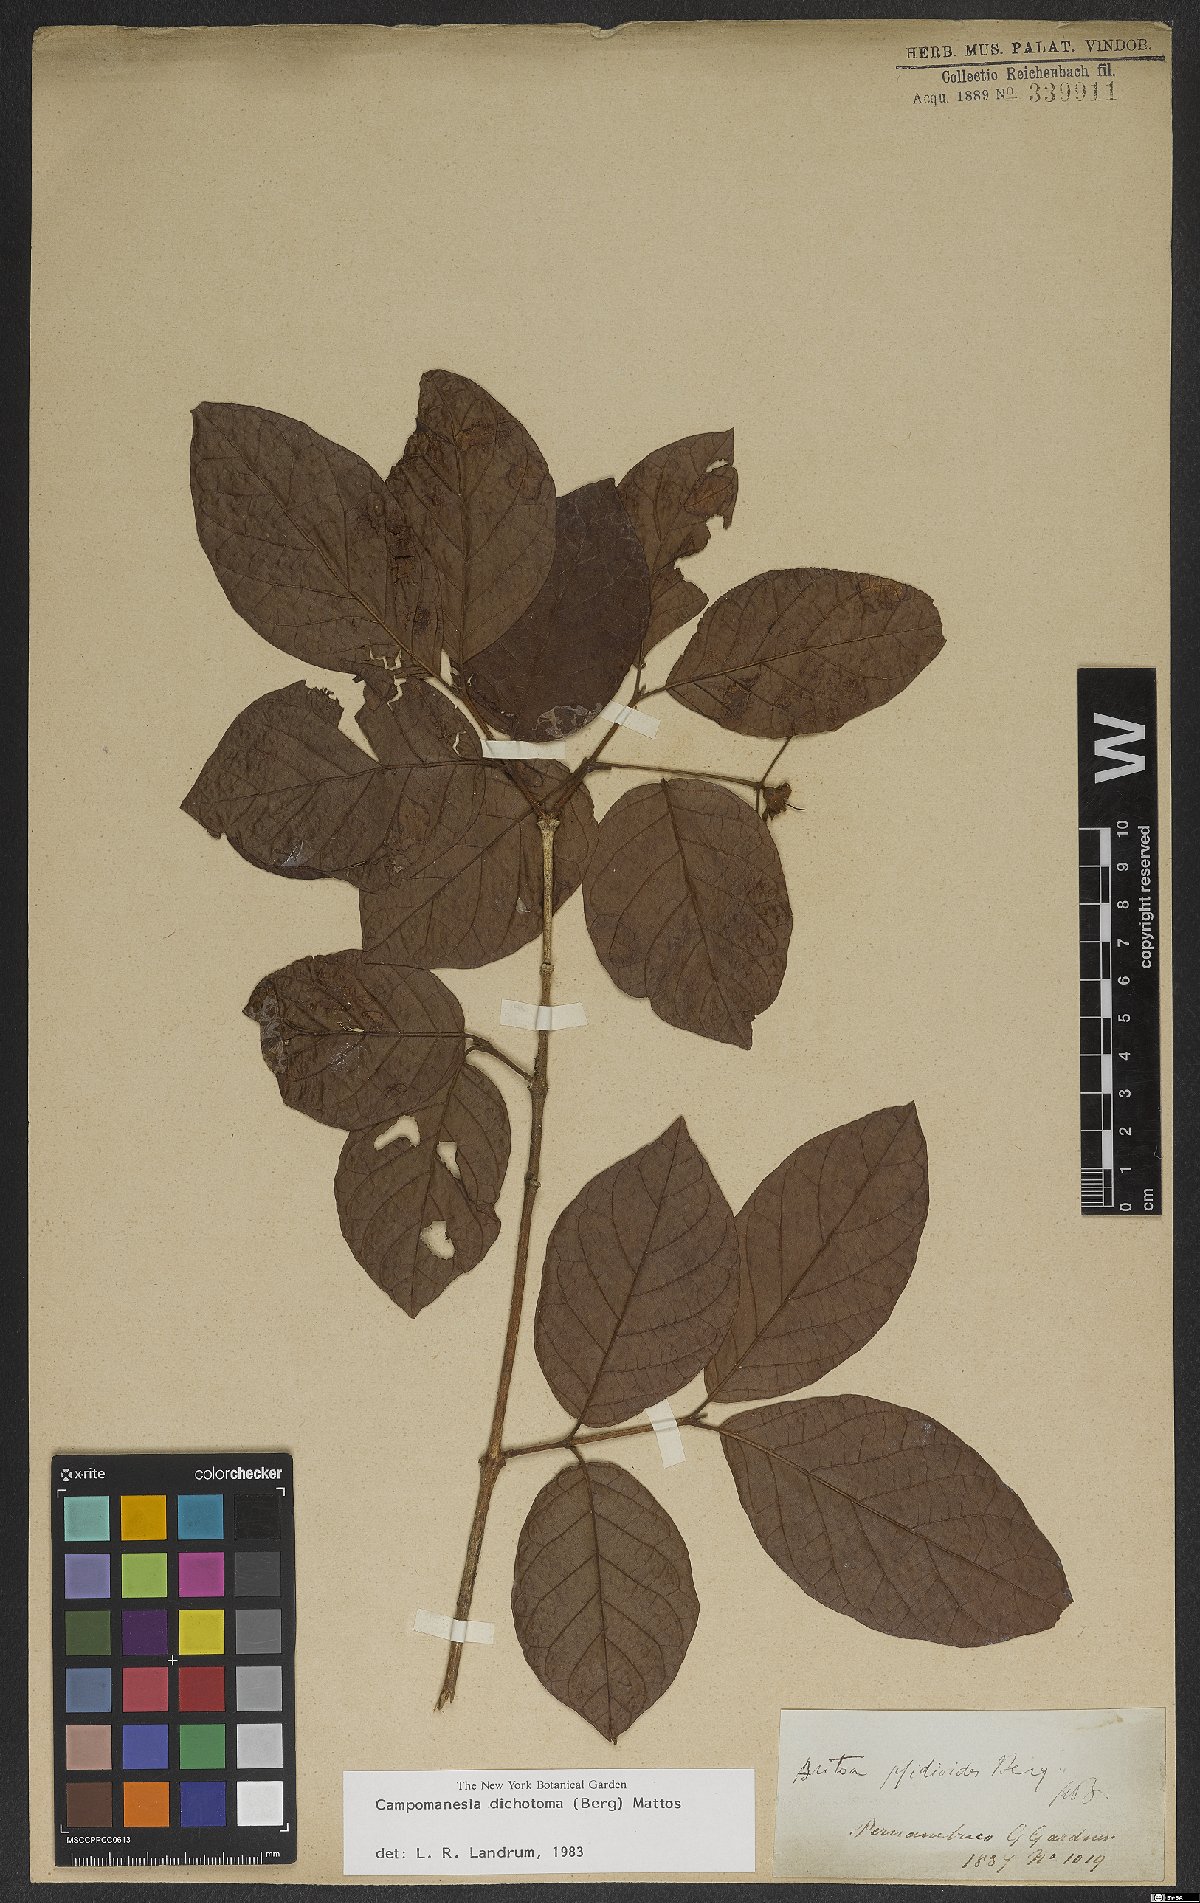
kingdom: Plantae
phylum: Tracheophyta
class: Magnoliopsida
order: Myrtales
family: Myrtaceae
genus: Campomanesia
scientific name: Campomanesia dichotoma
